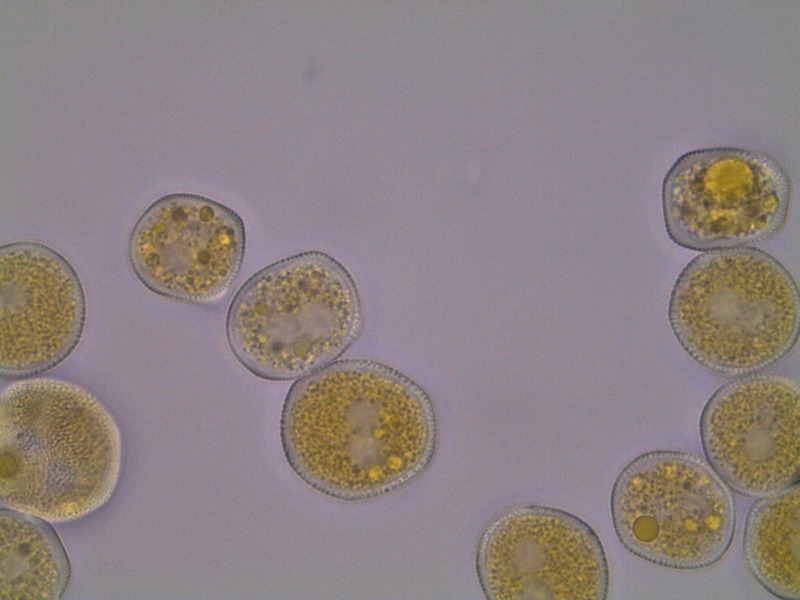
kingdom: Fungi
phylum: Basidiomycota
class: Pucciniomycetes
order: Pucciniales
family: Pucciniaceae
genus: Endophyllum
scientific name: Endophyllum euphorbiae-sylvaticae
